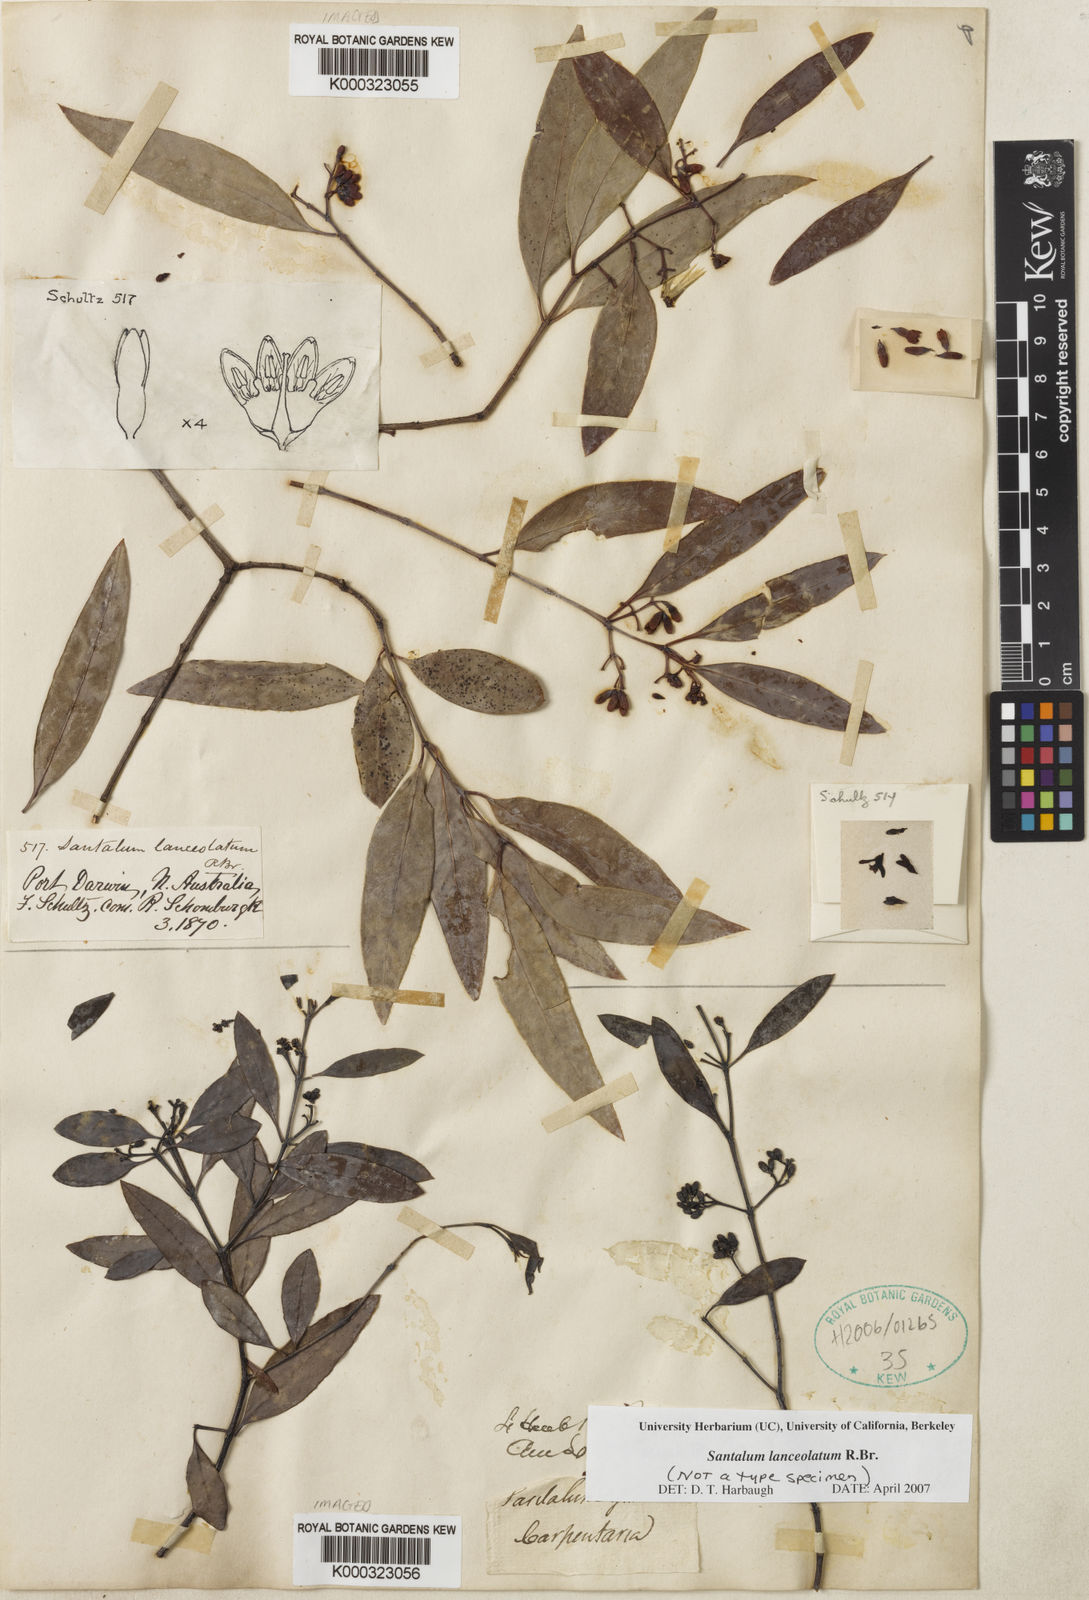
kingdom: Plantae
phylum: Tracheophyta
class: Magnoliopsida
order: Santalales
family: Santalaceae
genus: Santalum
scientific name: Santalum lanceolatum
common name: Ankwerley
